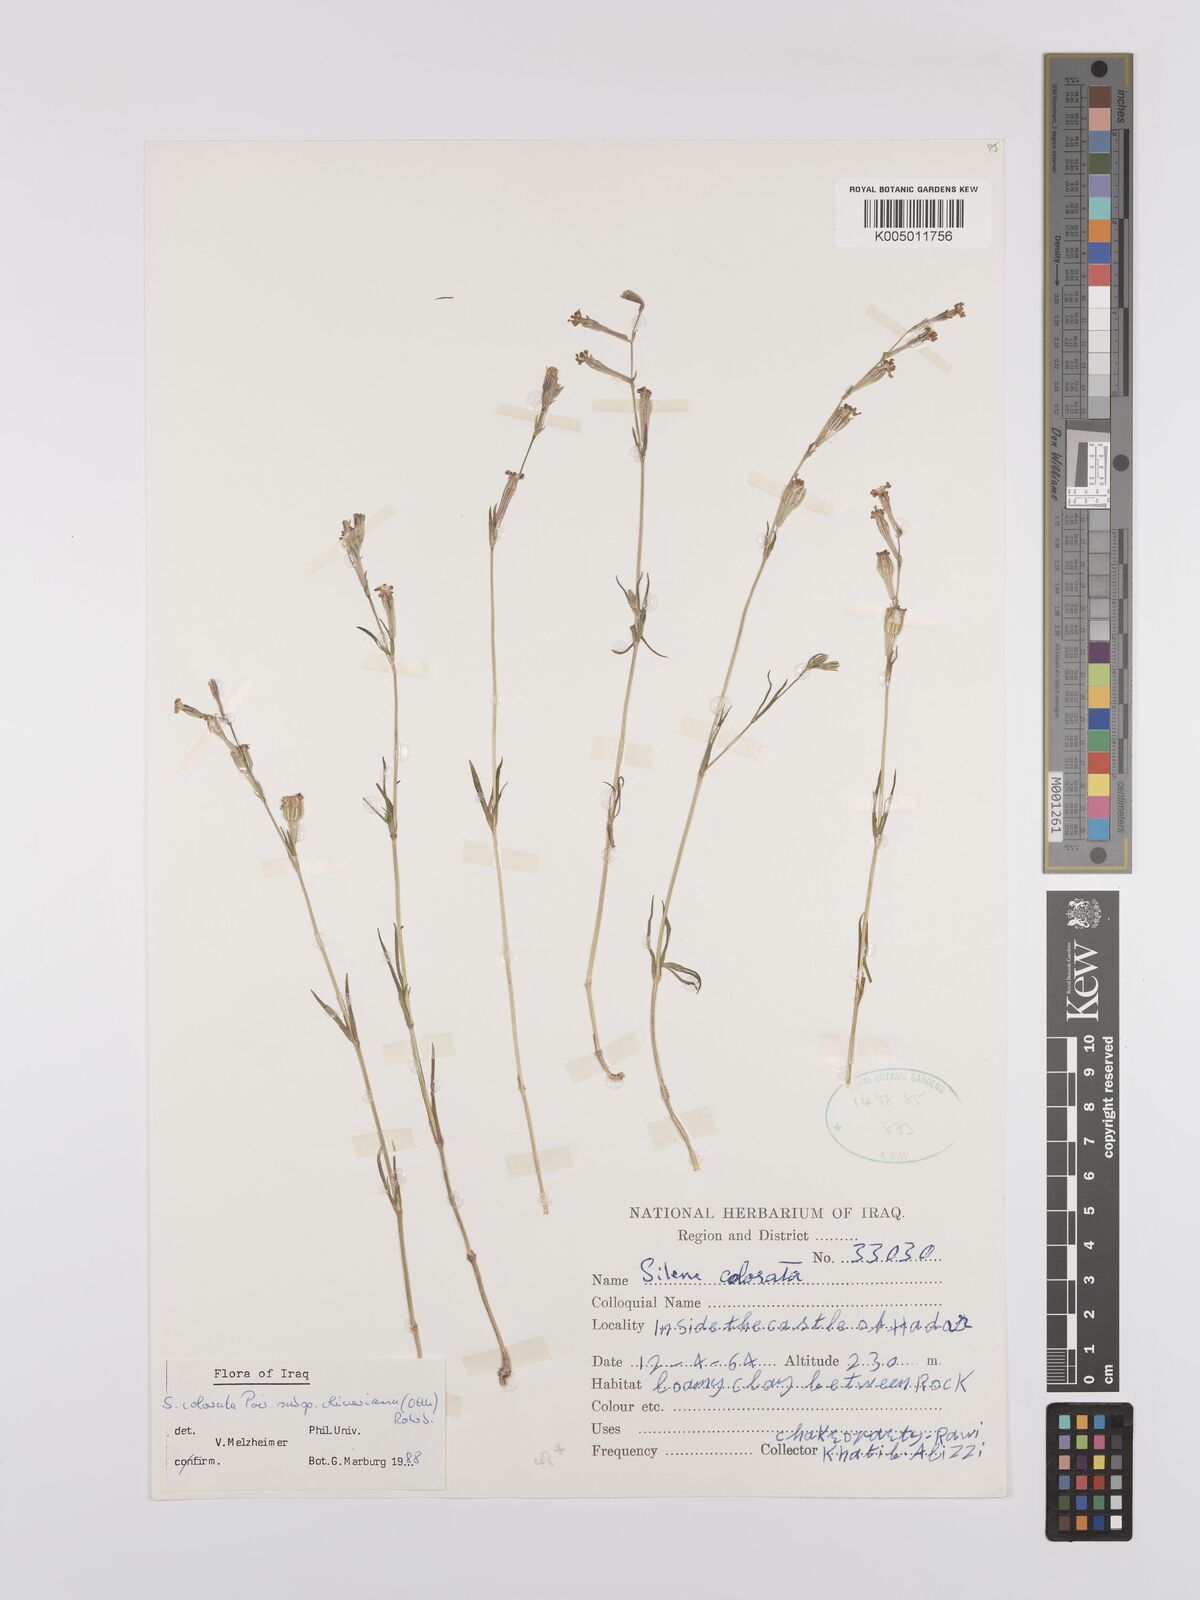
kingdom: Plantae
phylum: Tracheophyta
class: Magnoliopsida
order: Caryophyllales
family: Caryophyllaceae
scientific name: Caryophyllaceae
